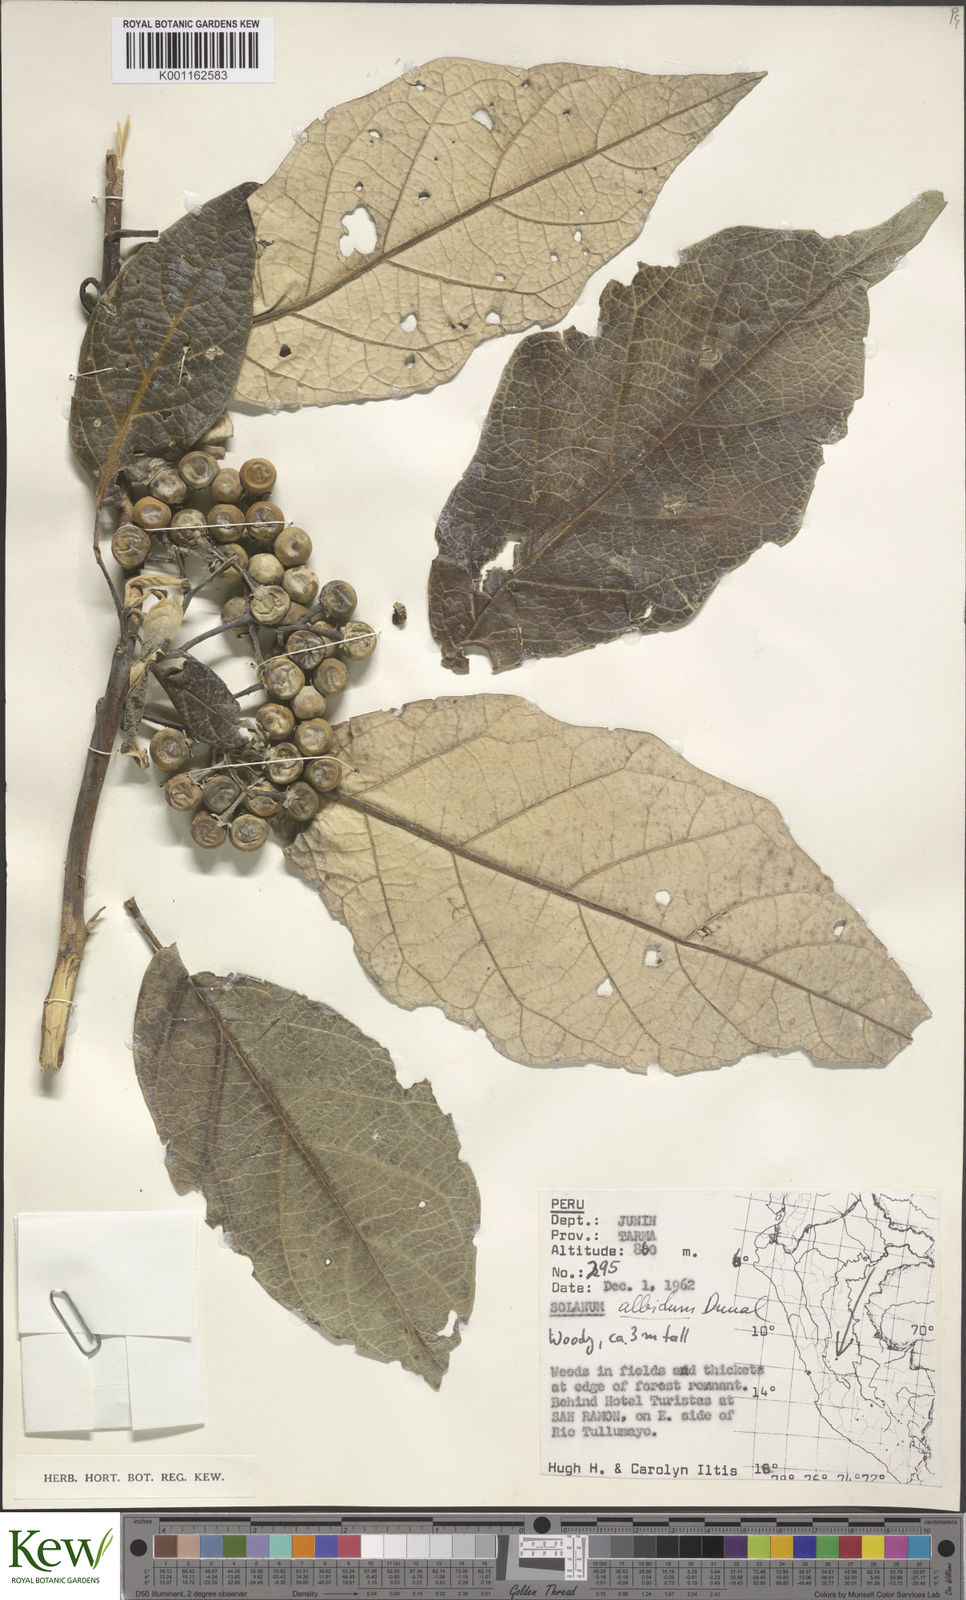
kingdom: Plantae
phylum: Tracheophyta
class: Magnoliopsida
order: Solanales
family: Solanaceae
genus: Solanum
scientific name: Solanum albidum
